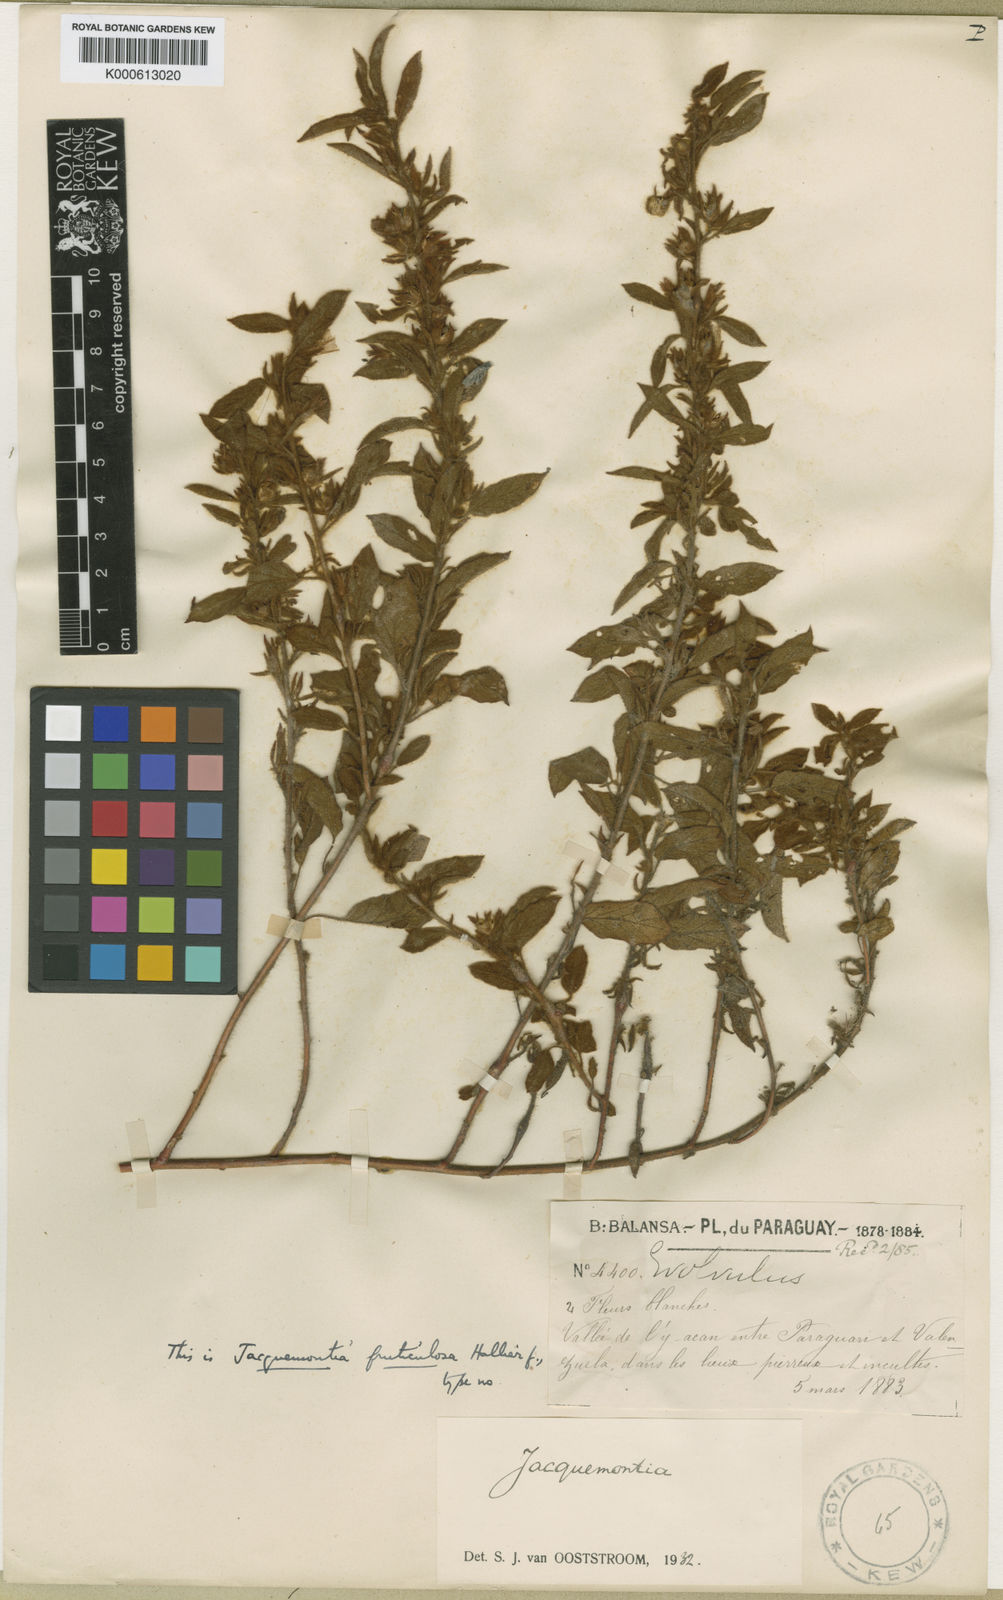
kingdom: Plantae
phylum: Tracheophyta
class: Magnoliopsida
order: Solanales
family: Convolvulaceae
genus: Jacquemontia
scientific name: Jacquemontia fruticulosa
